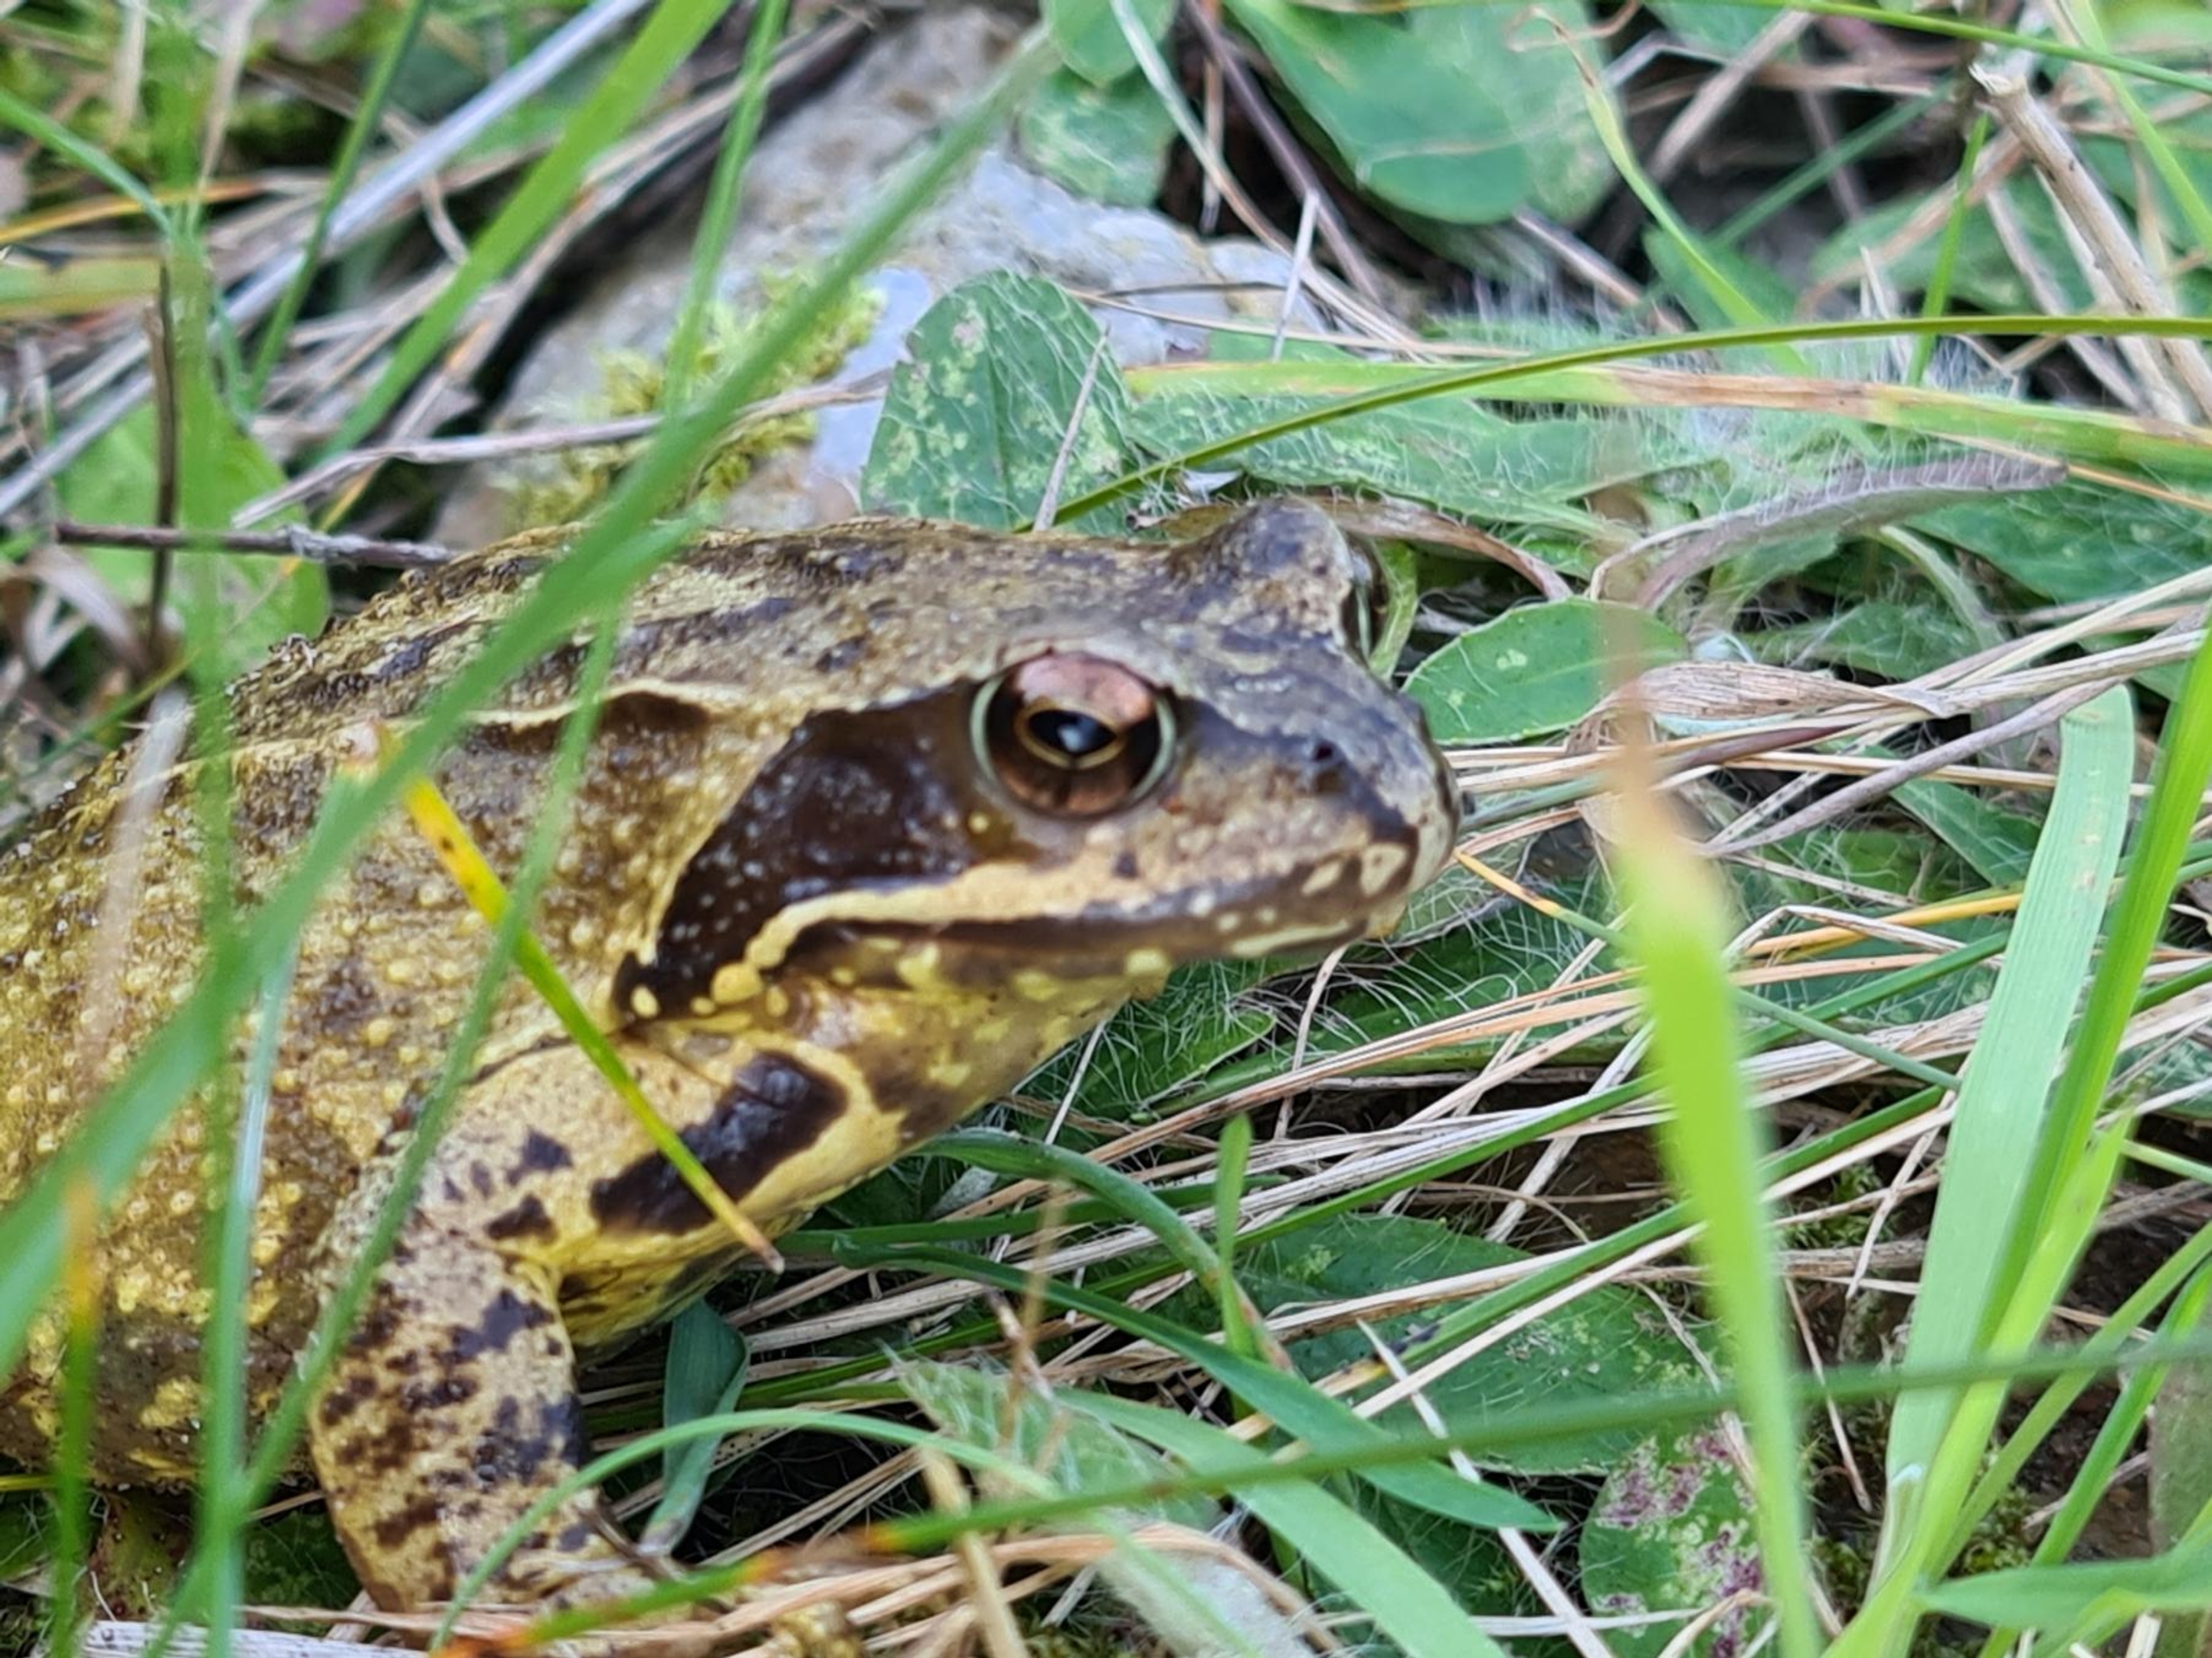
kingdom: Animalia
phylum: Chordata
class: Amphibia
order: Anura
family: Ranidae
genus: Rana
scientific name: Rana temporaria
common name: Butsnudet frø
